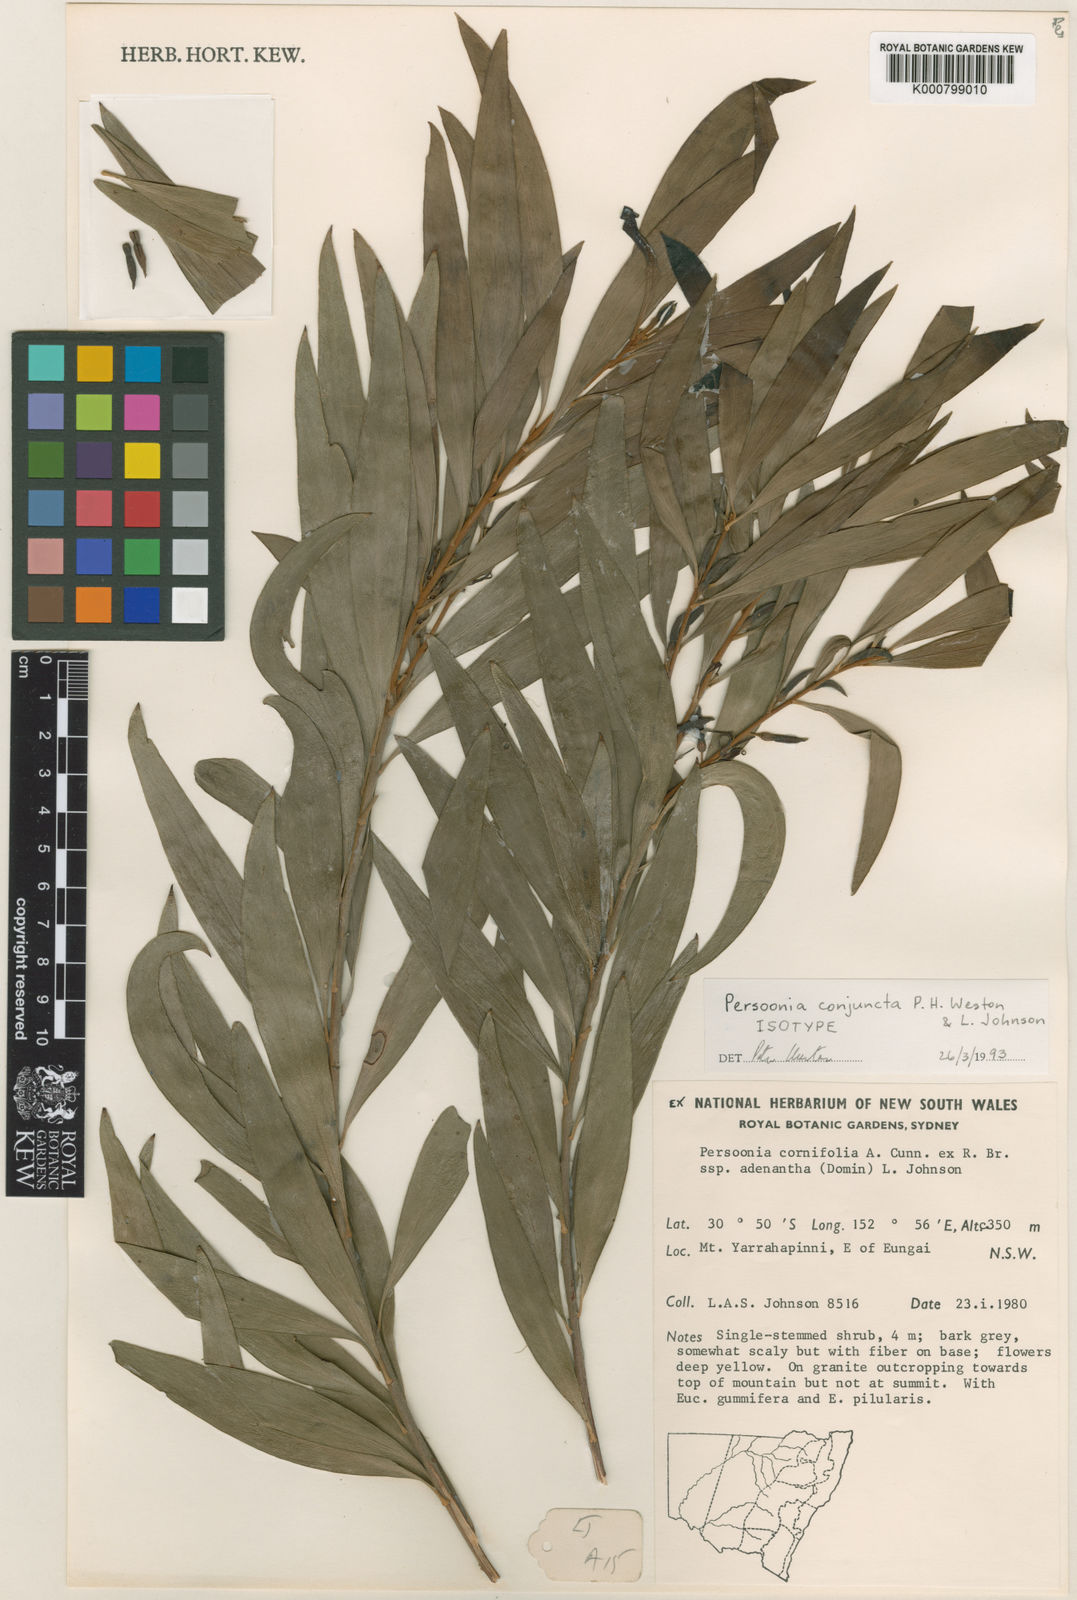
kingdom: Plantae
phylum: Tracheophyta
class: Magnoliopsida
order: Proteales
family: Proteaceae
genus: Persoonia
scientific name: Persoonia conjuncta
